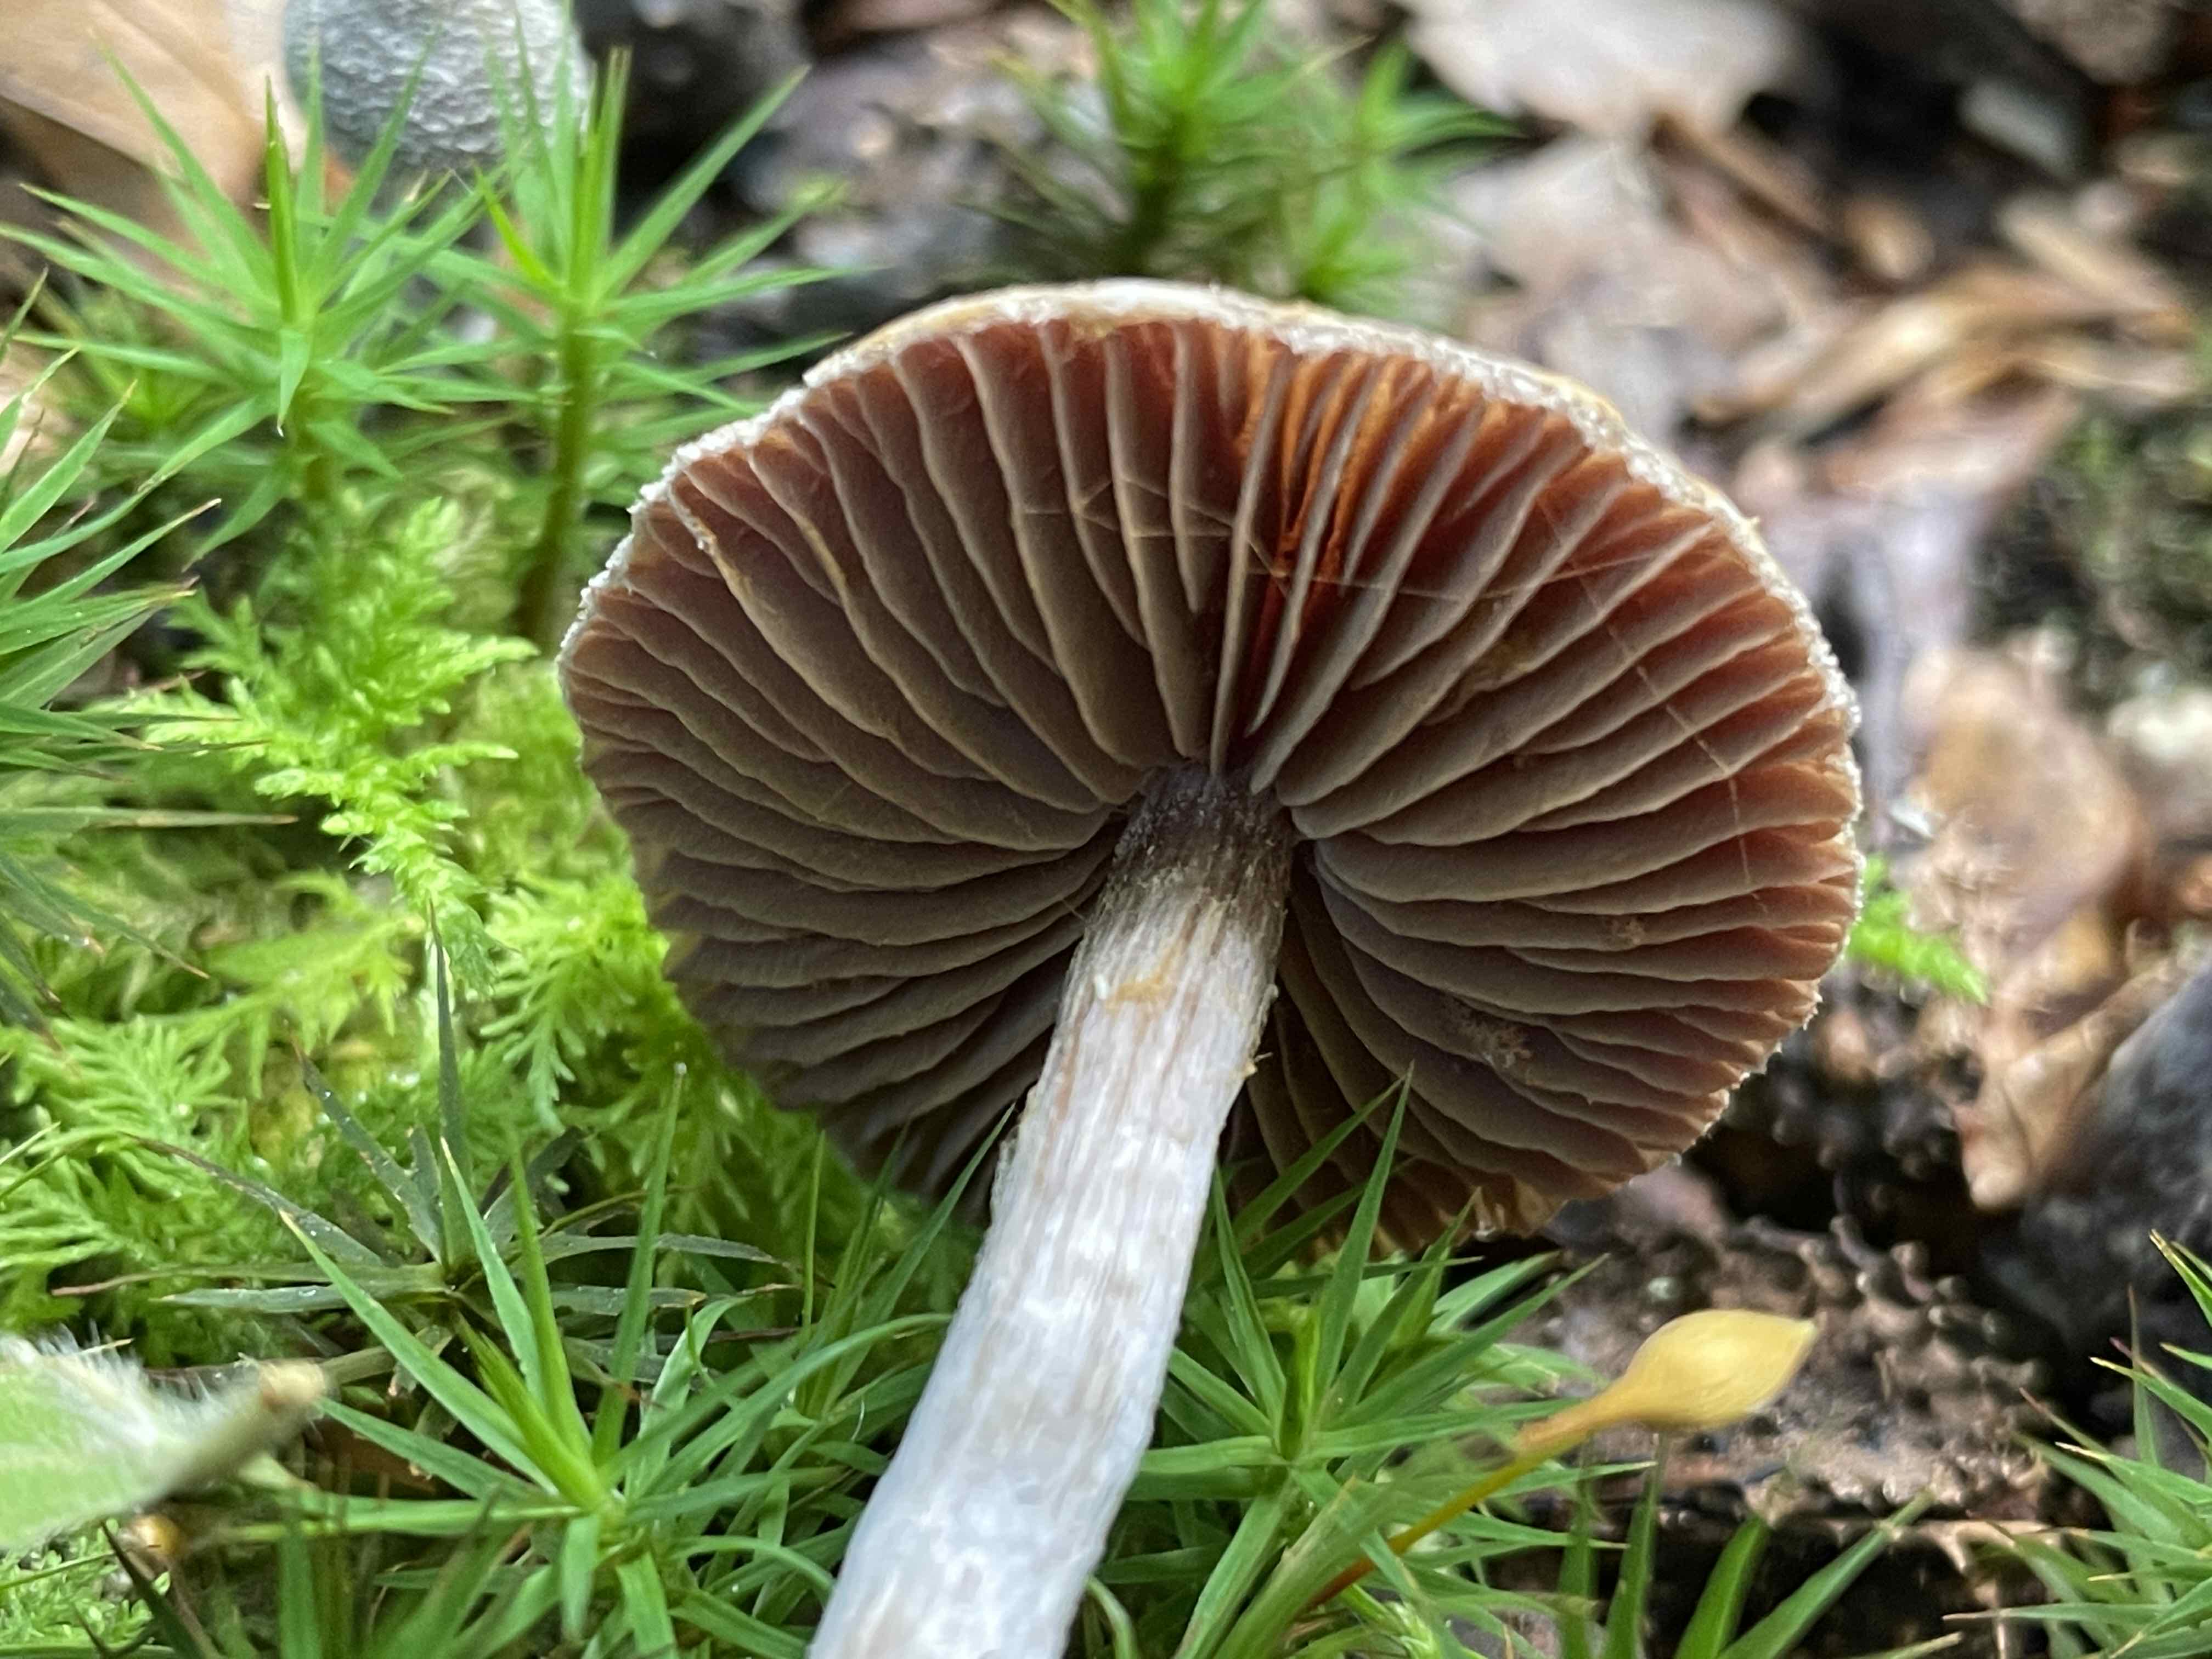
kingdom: Fungi
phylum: Basidiomycota
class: Agaricomycetes
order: Agaricales
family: Cortinariaceae
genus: Cortinarius
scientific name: Cortinarius geraniolens
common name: geranium-slørhat
